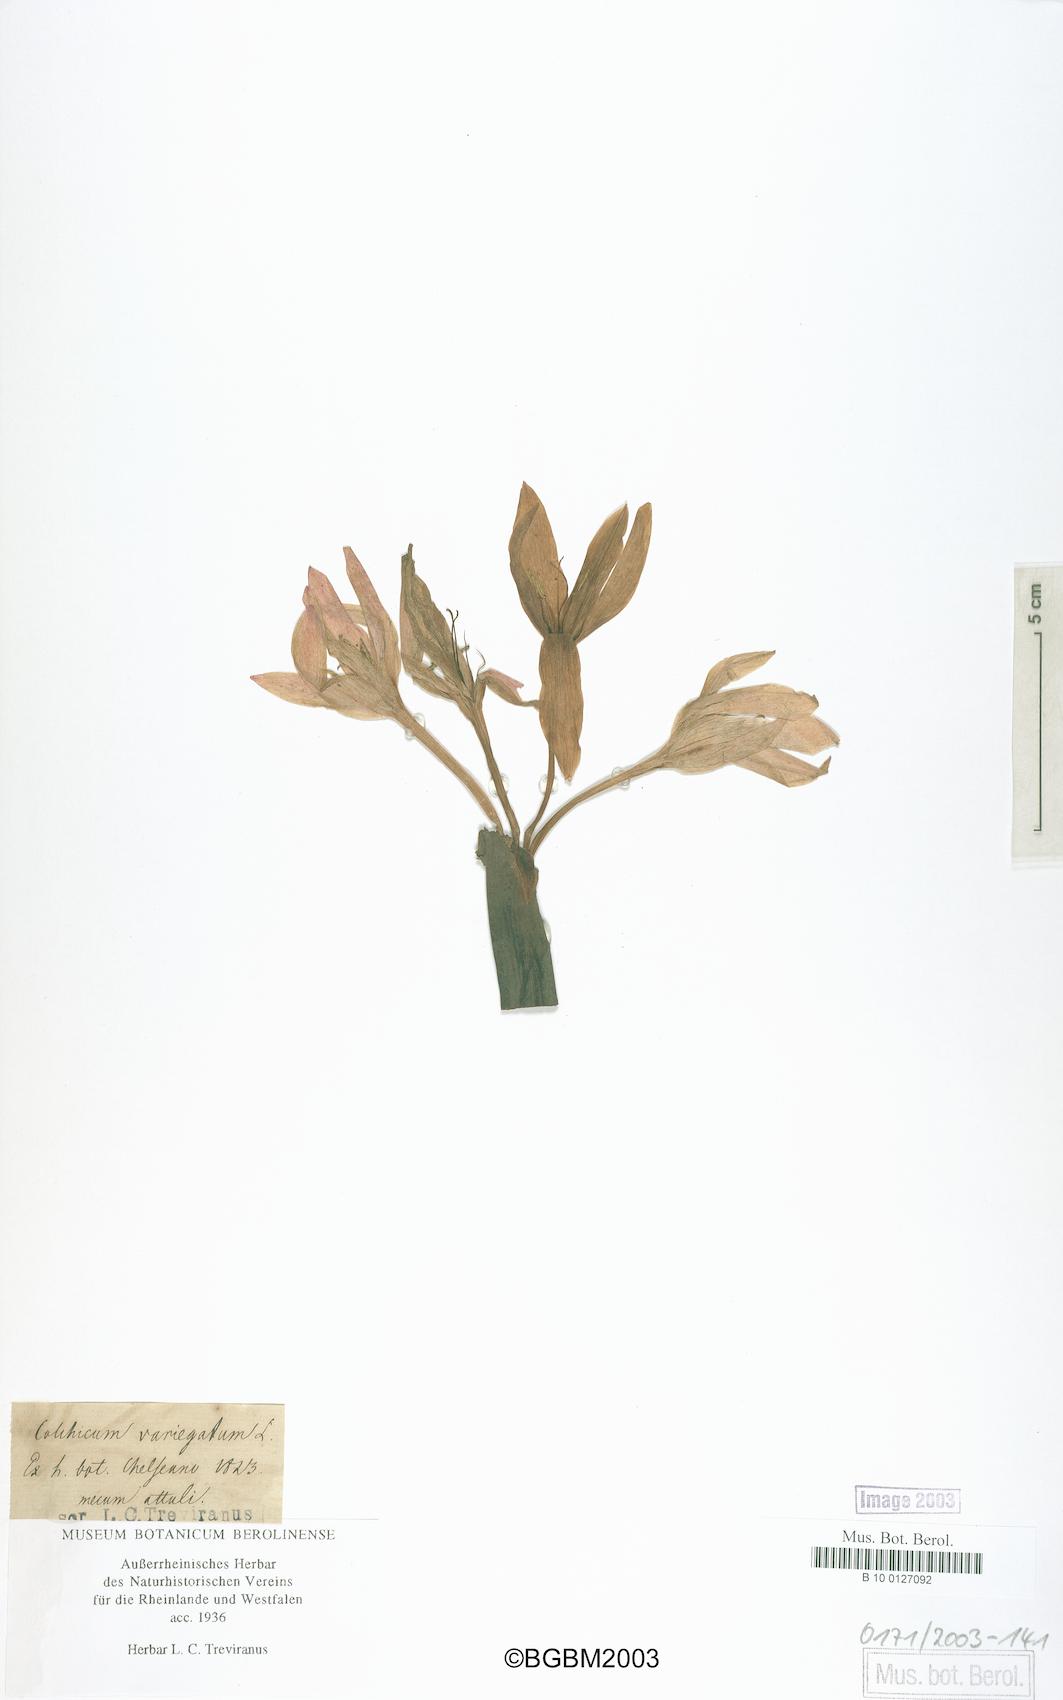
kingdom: Plantae
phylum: Tracheophyta
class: Liliopsida
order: Liliales
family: Colchicaceae
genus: Colchicum
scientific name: Colchicum macrophyllum
